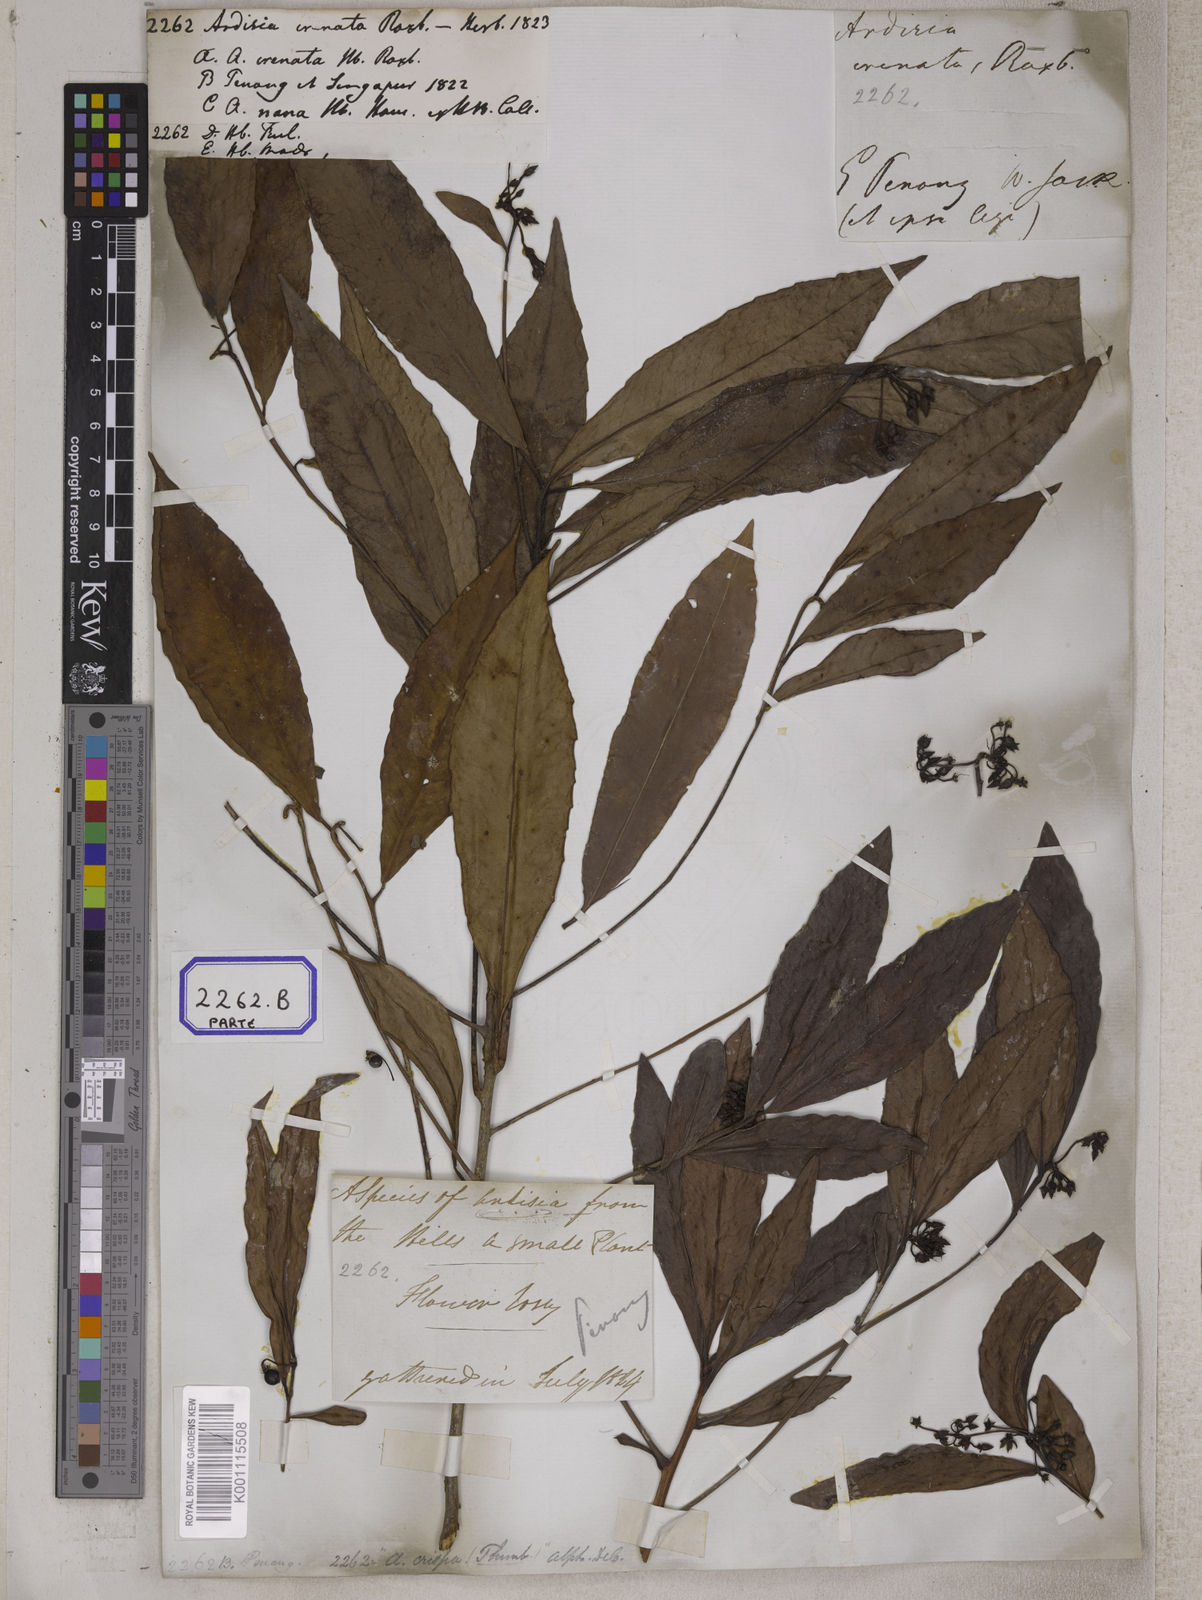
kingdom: Plantae
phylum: Tracheophyta
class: Magnoliopsida
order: Ericales
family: Primulaceae
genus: Ardisia
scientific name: Ardisia
